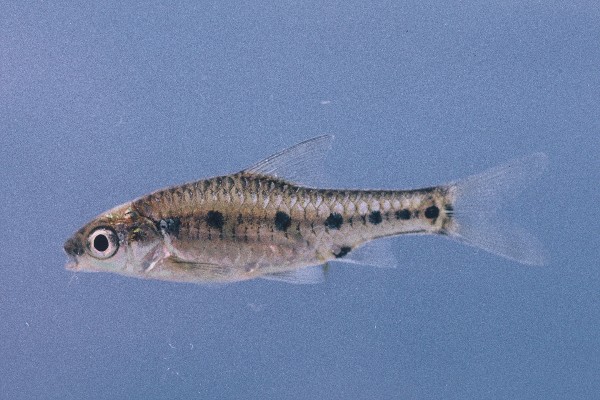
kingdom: Animalia
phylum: Chordata
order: Cypriniformes
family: Cyprinidae
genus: Enteromius
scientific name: Enteromius lineomaculatus
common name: Line-spotted barb
